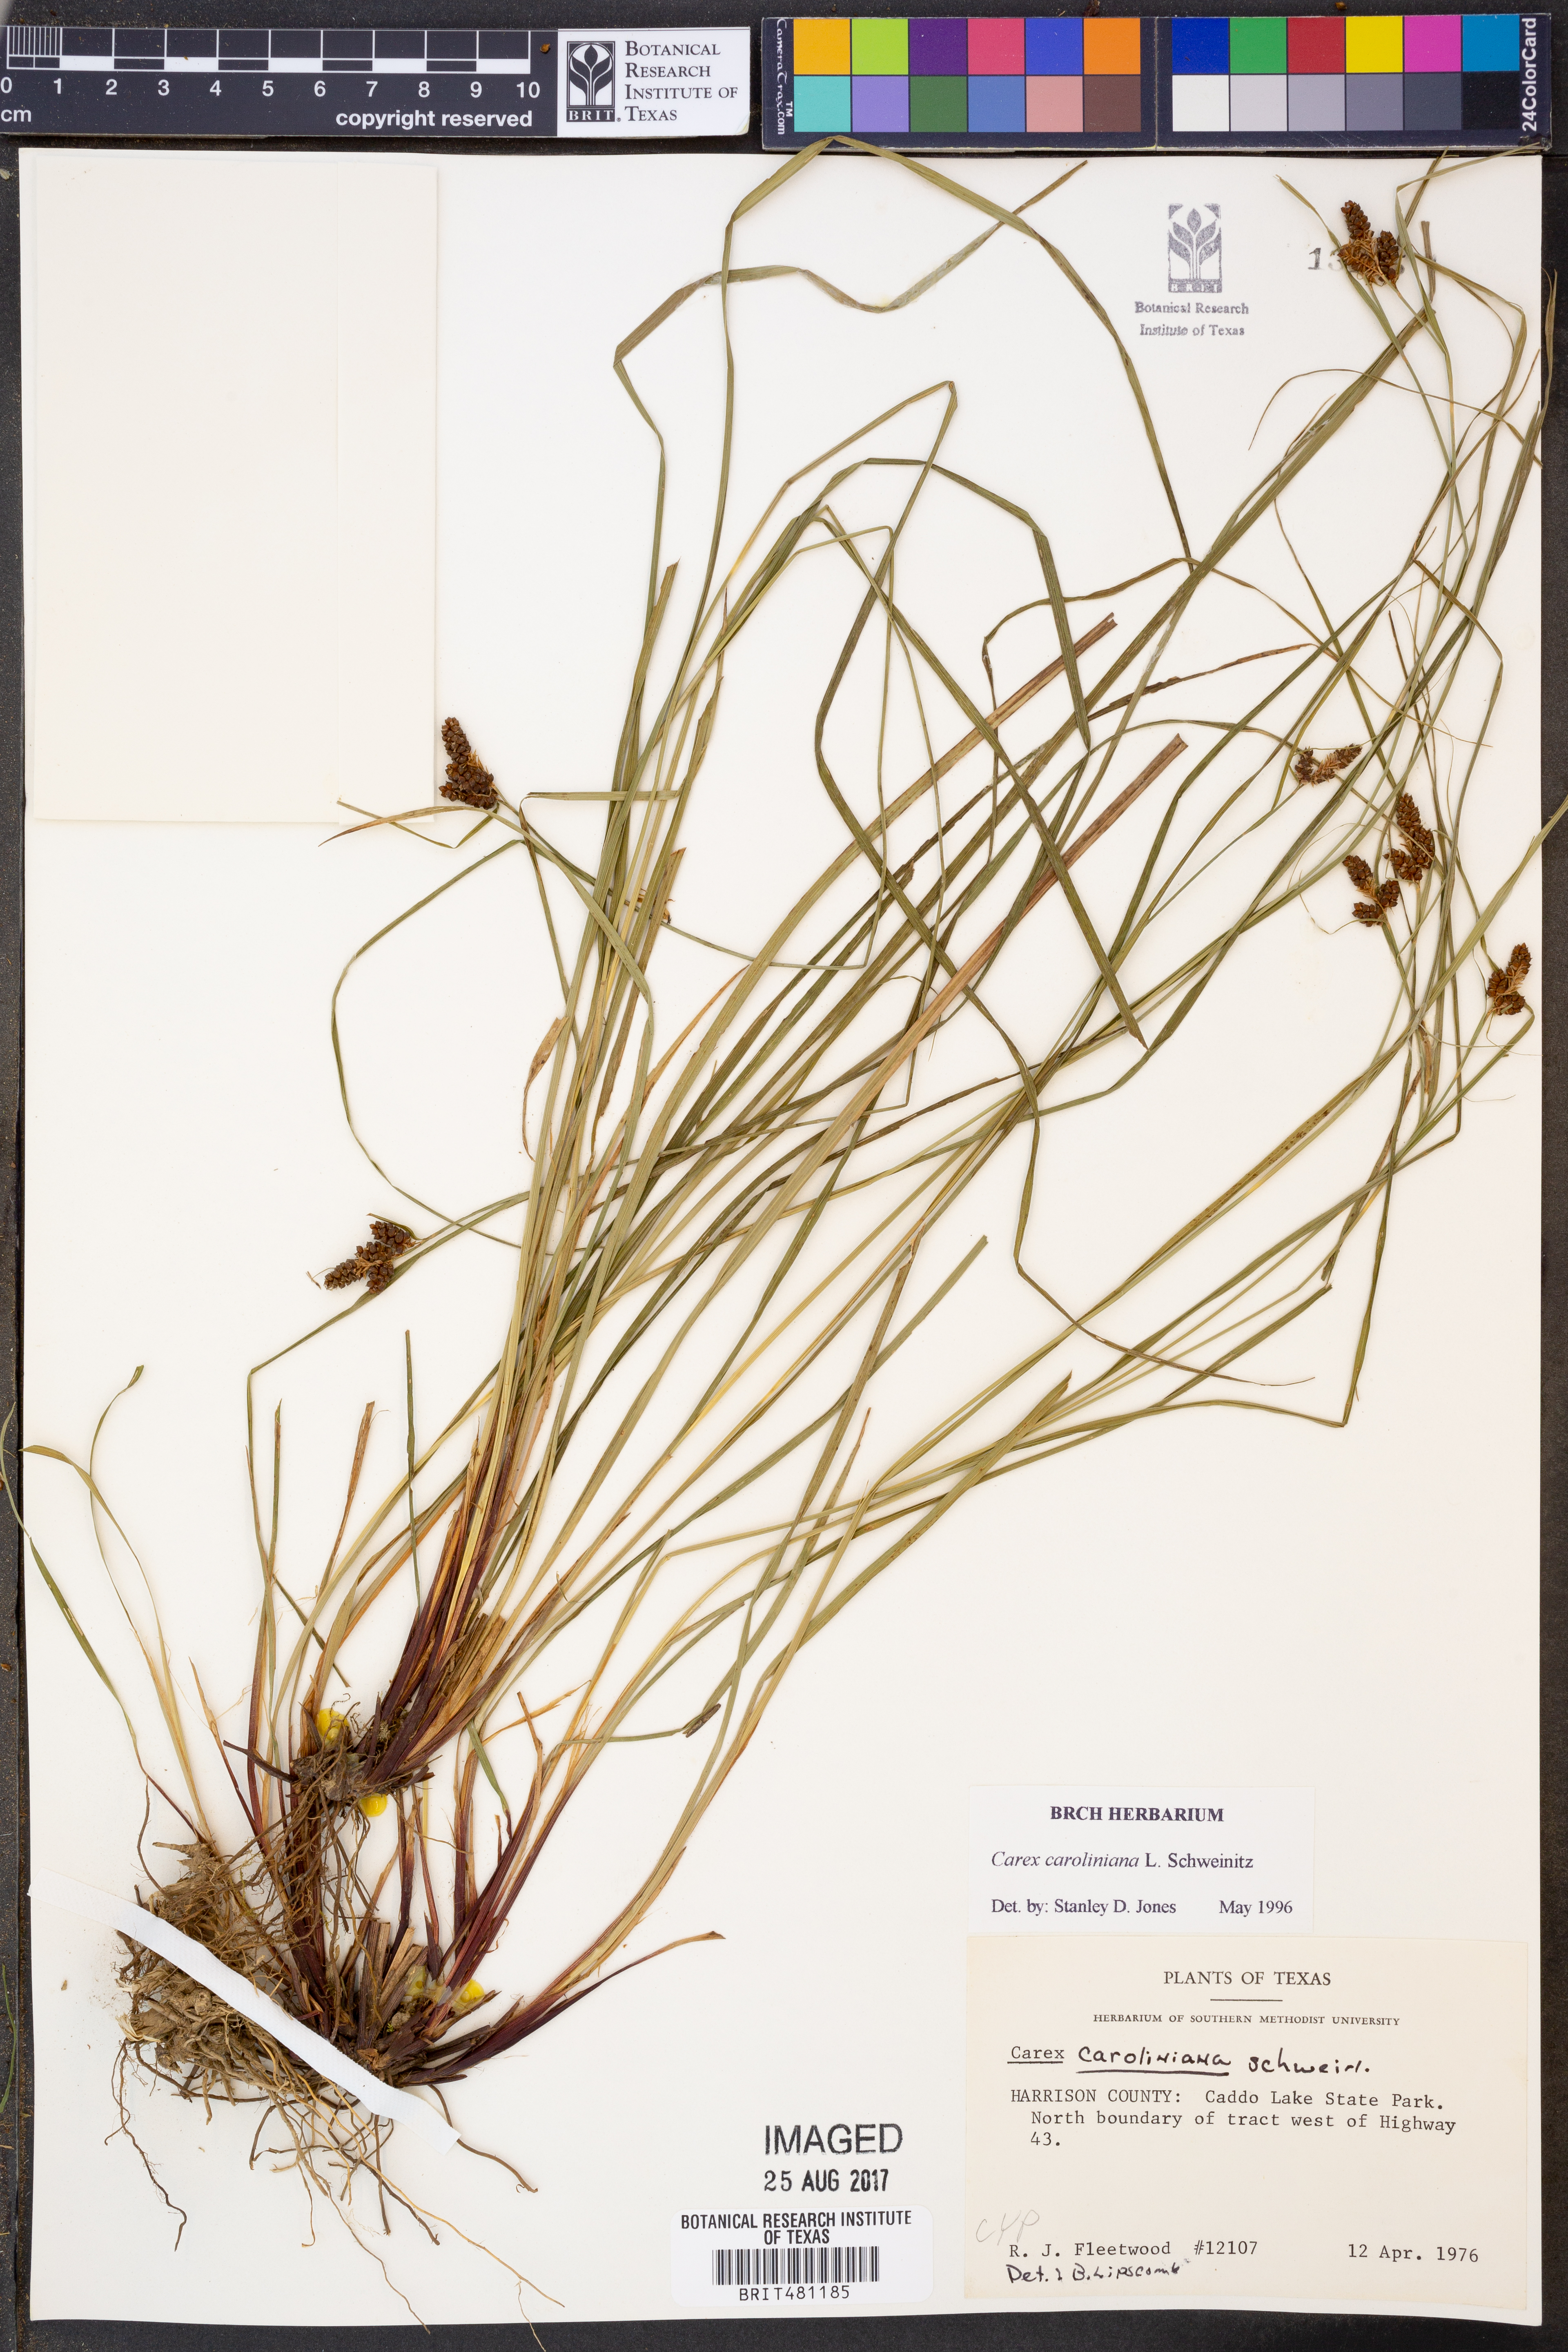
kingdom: Plantae
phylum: Tracheophyta
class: Liliopsida
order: Poales
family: Cyperaceae
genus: Carex
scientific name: Carex caroliniana
